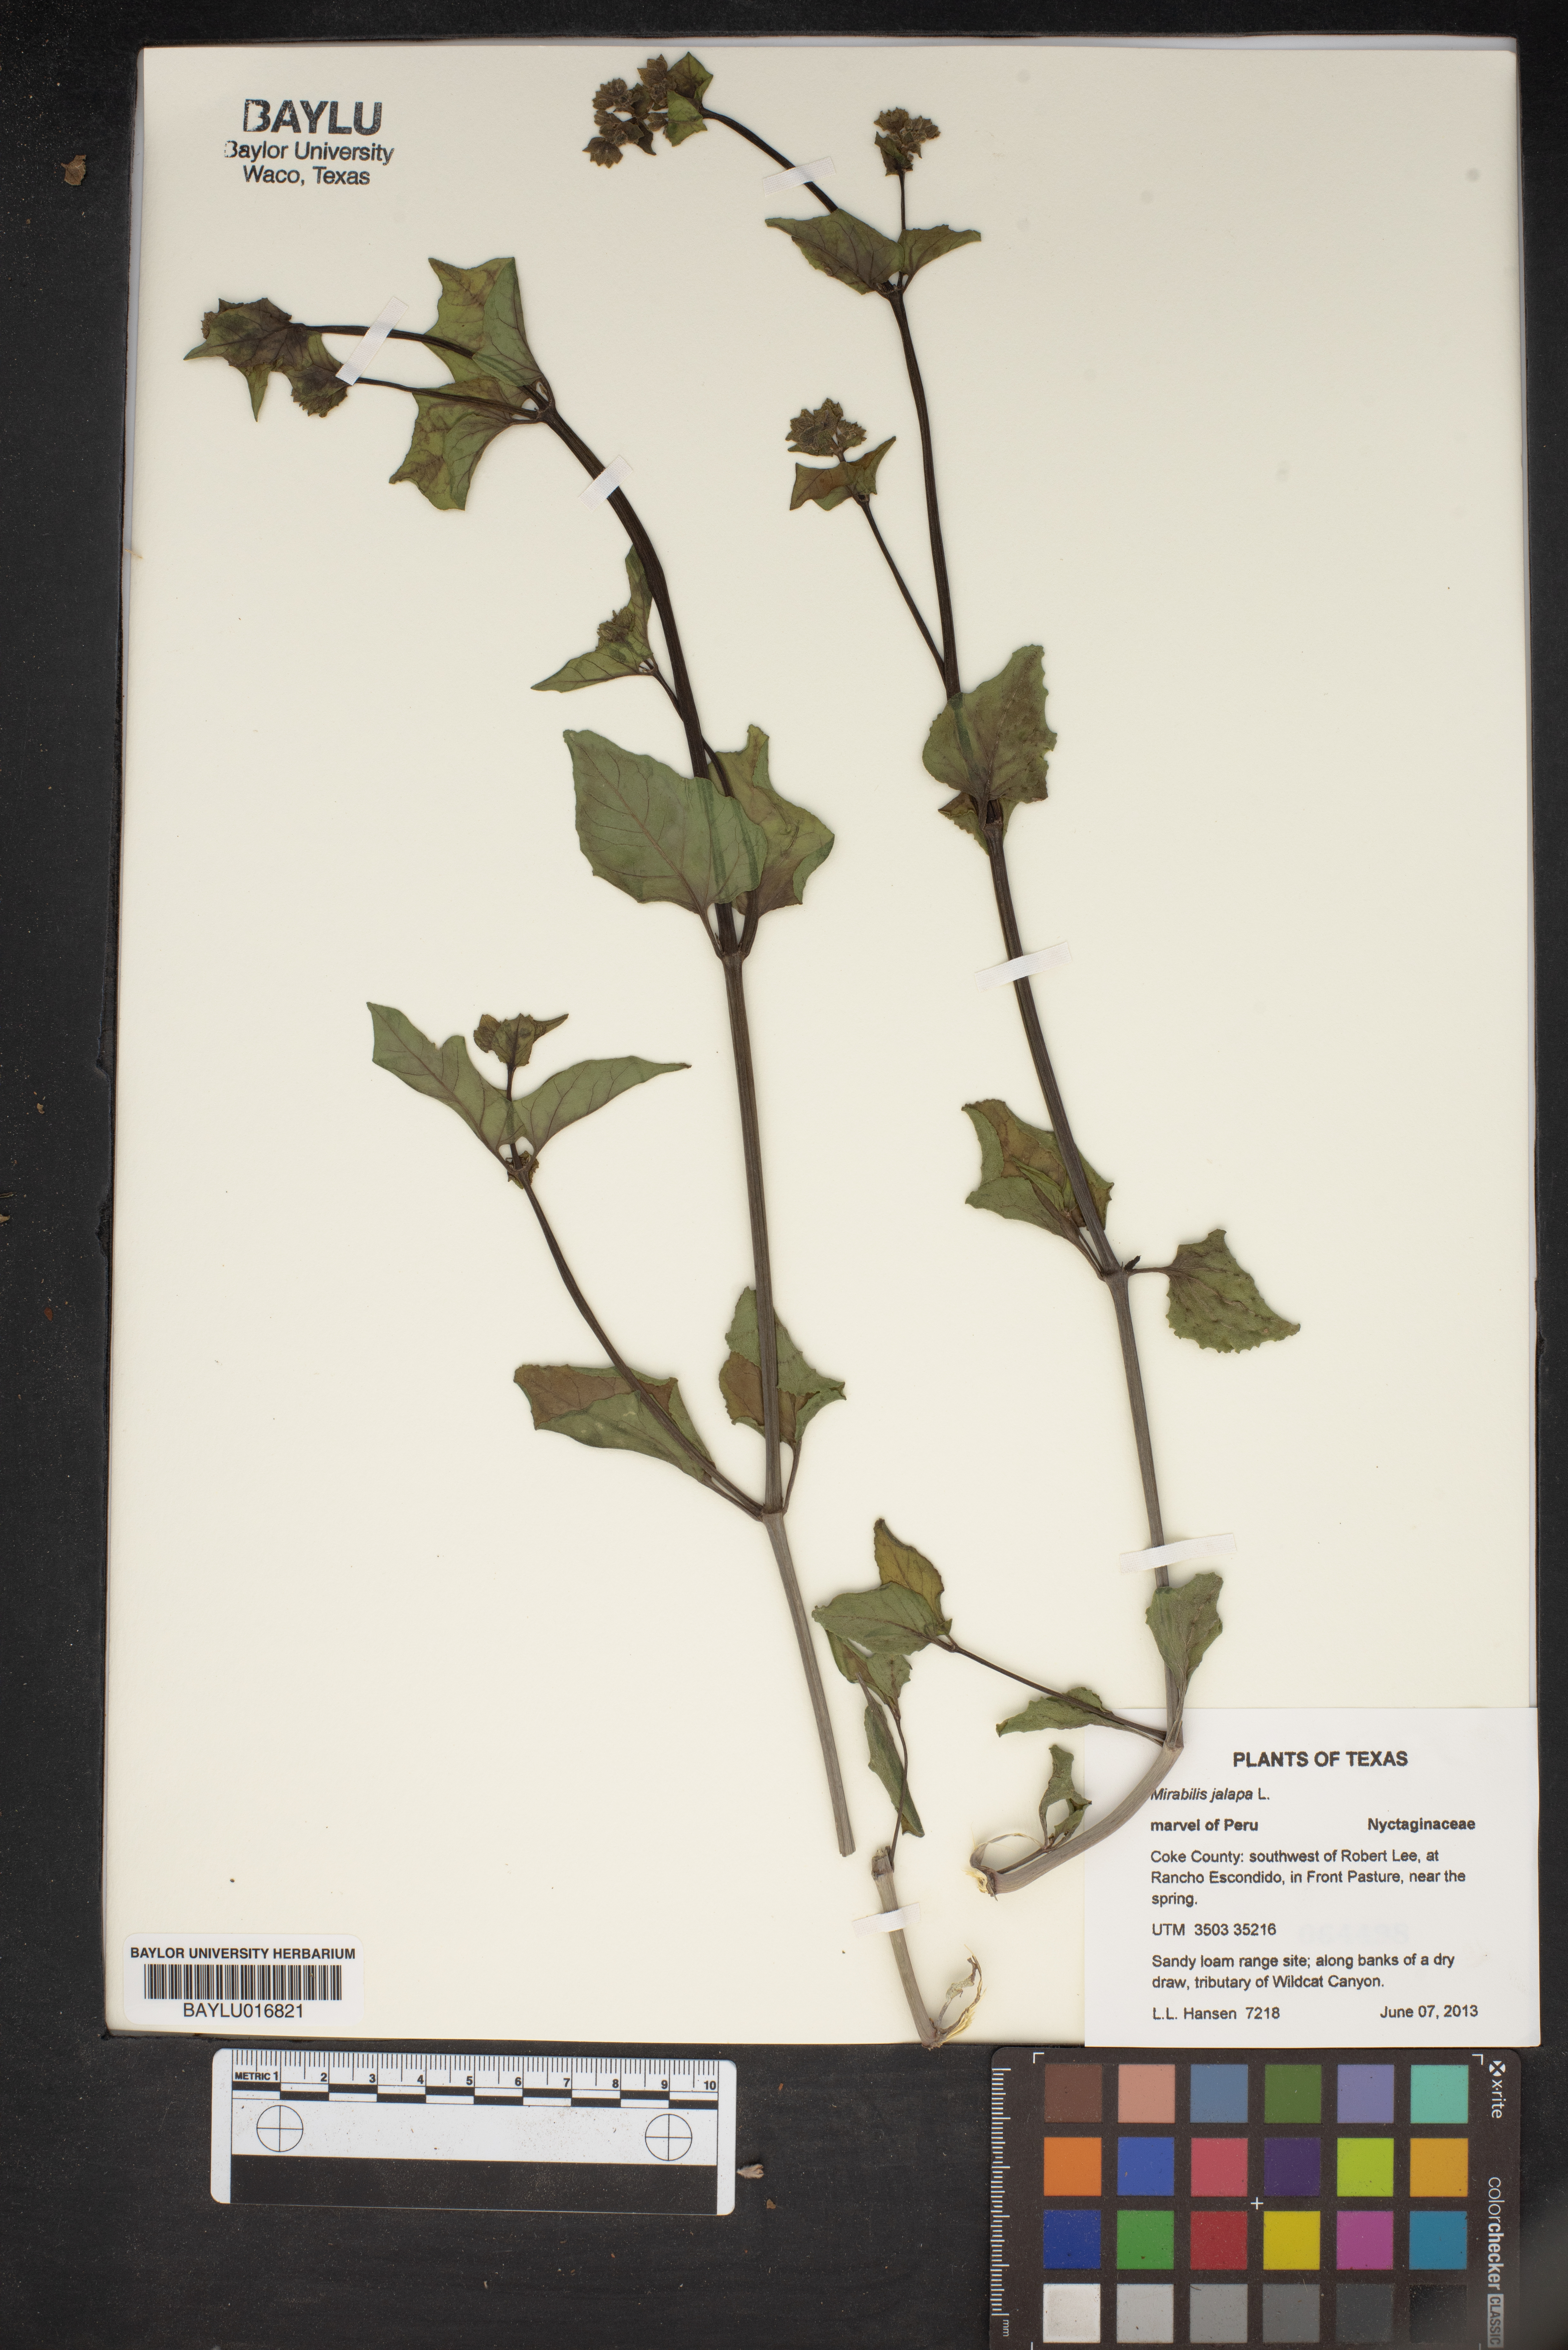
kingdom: Plantae
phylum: Tracheophyta
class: Magnoliopsida
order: Caryophyllales
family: Nyctaginaceae
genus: Mirabilis
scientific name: Mirabilis jalapa
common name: Marvel-of-peru
